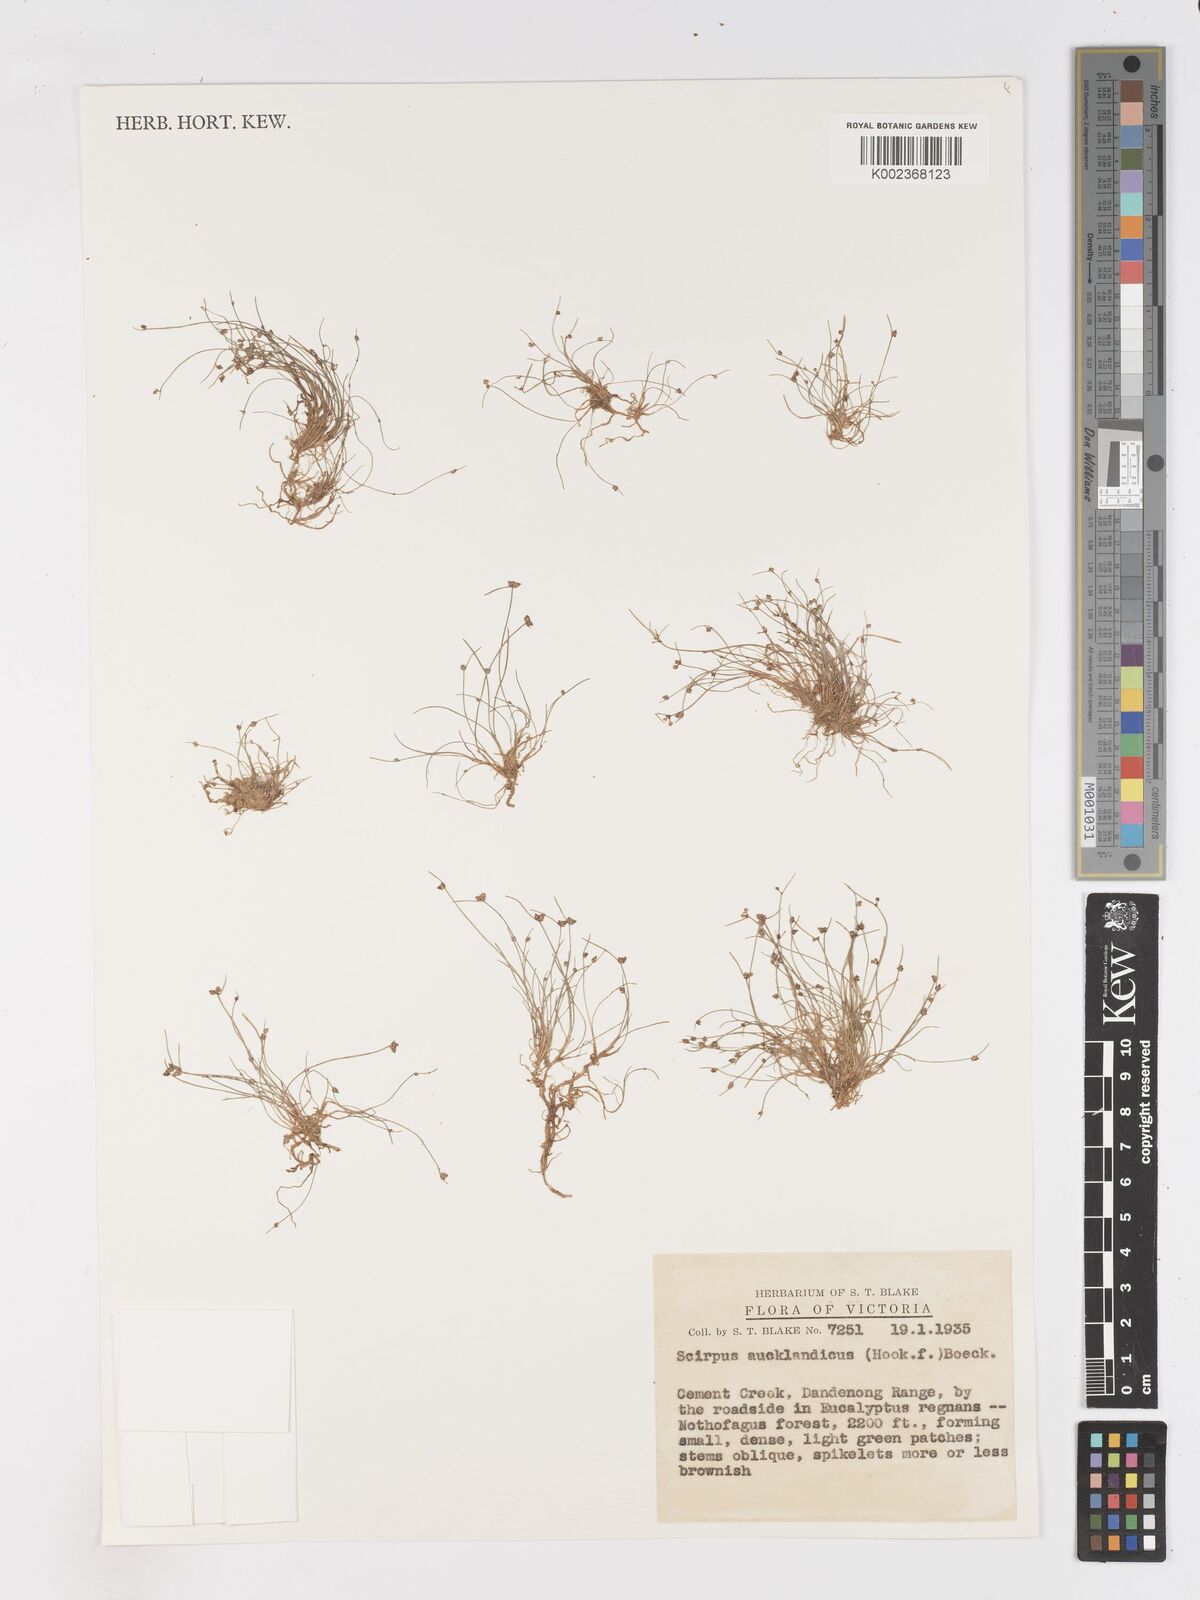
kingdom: Plantae
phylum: Tracheophyta
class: Liliopsida
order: Poales
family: Cyperaceae
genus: Isolepis
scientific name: Isolepis aucklandica
